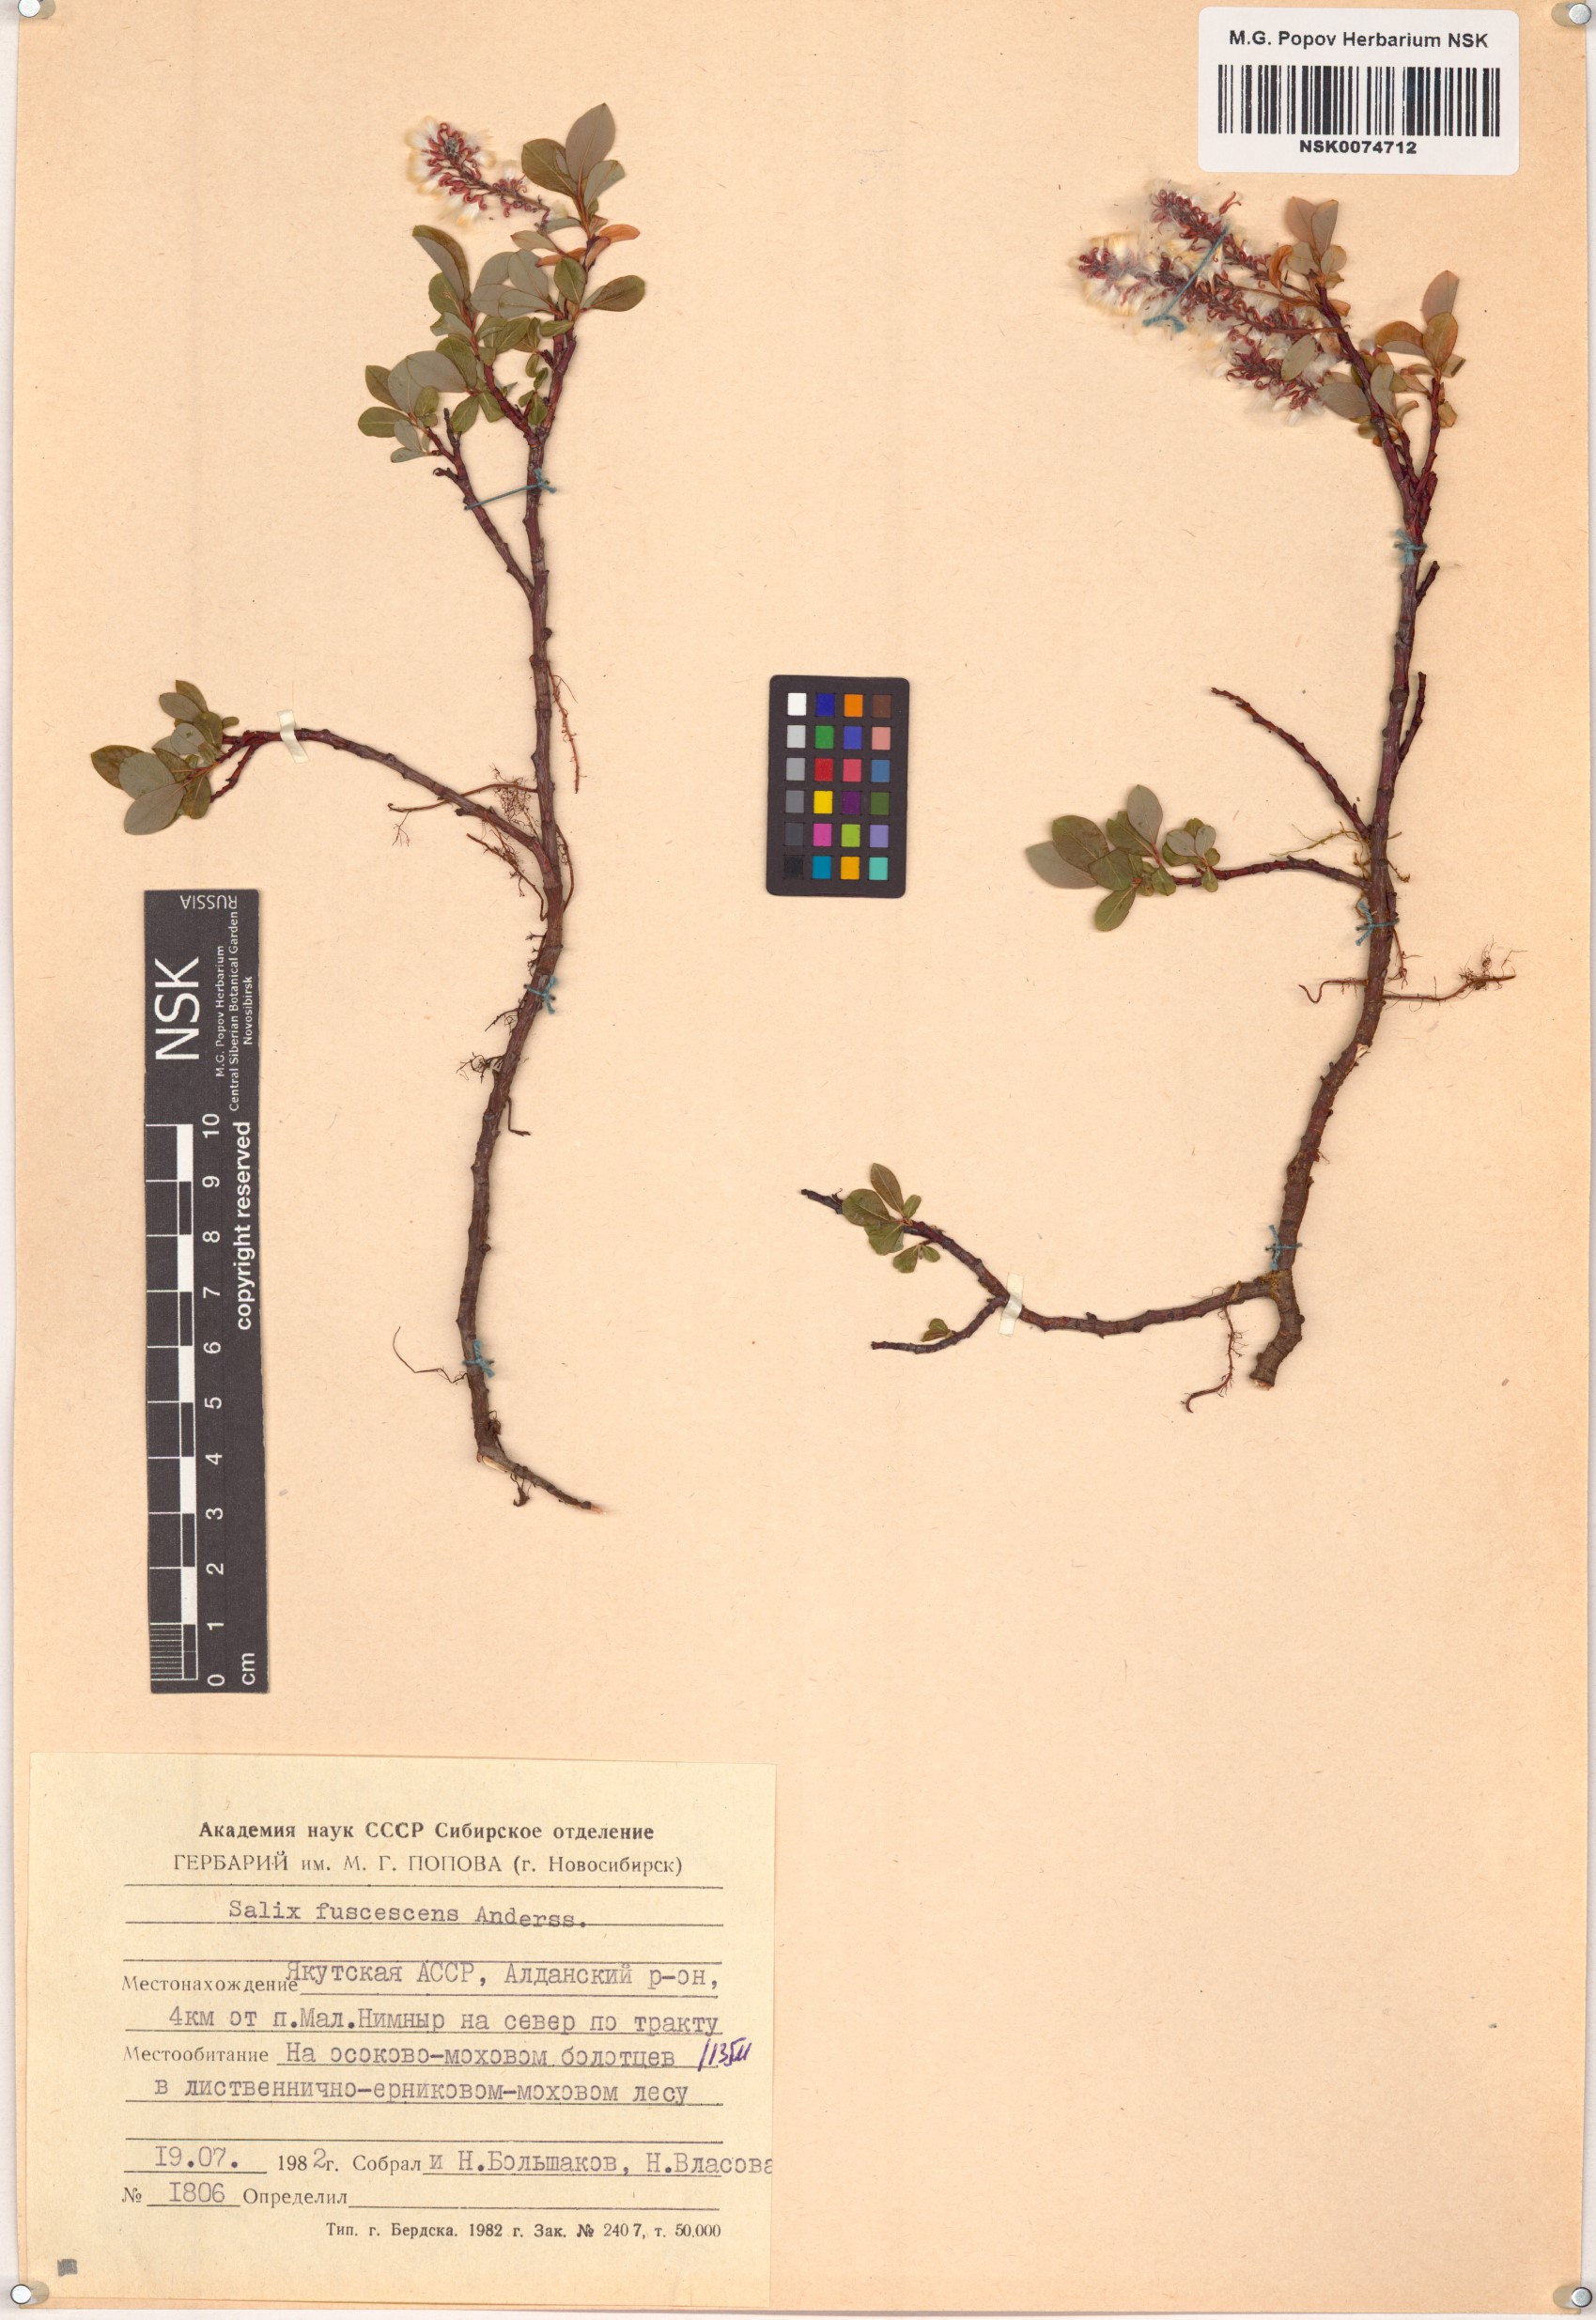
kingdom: Plantae
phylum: Tracheophyta
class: Magnoliopsida
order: Malpighiales
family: Salicaceae
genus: Salix
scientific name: Salix fuscescens
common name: Brownish willow
